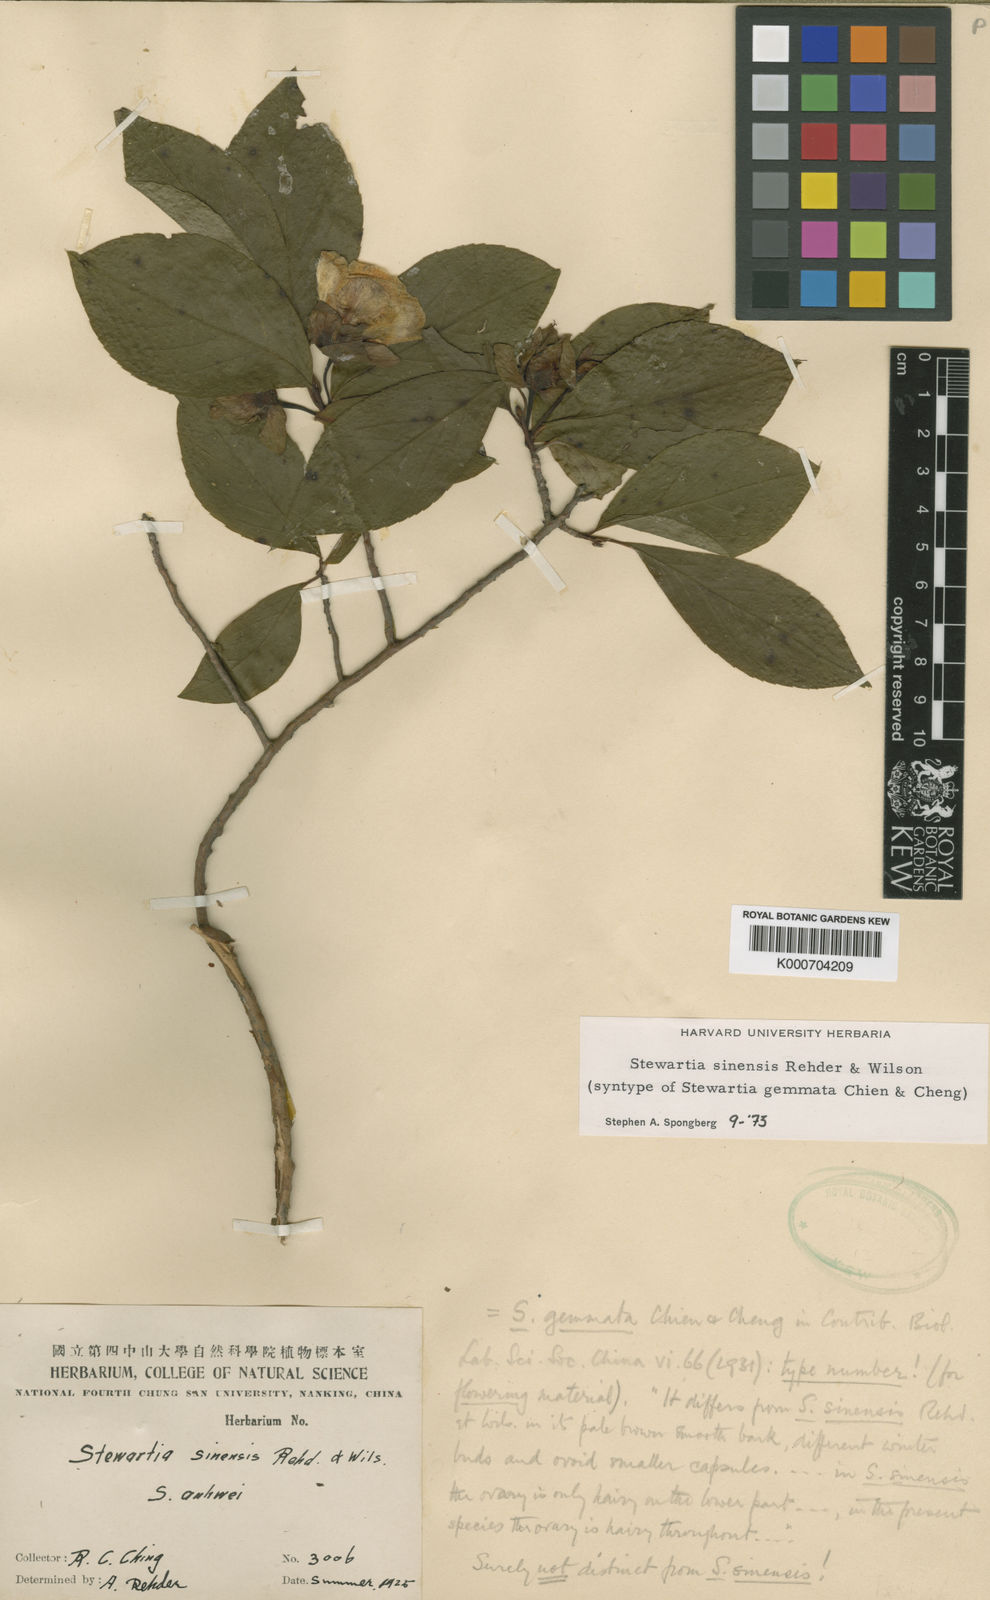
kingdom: Plantae
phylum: Tracheophyta
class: Magnoliopsida
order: Ericales
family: Theaceae
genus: Stewartia
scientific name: Stewartia sinensis
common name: Chinese stewartia
